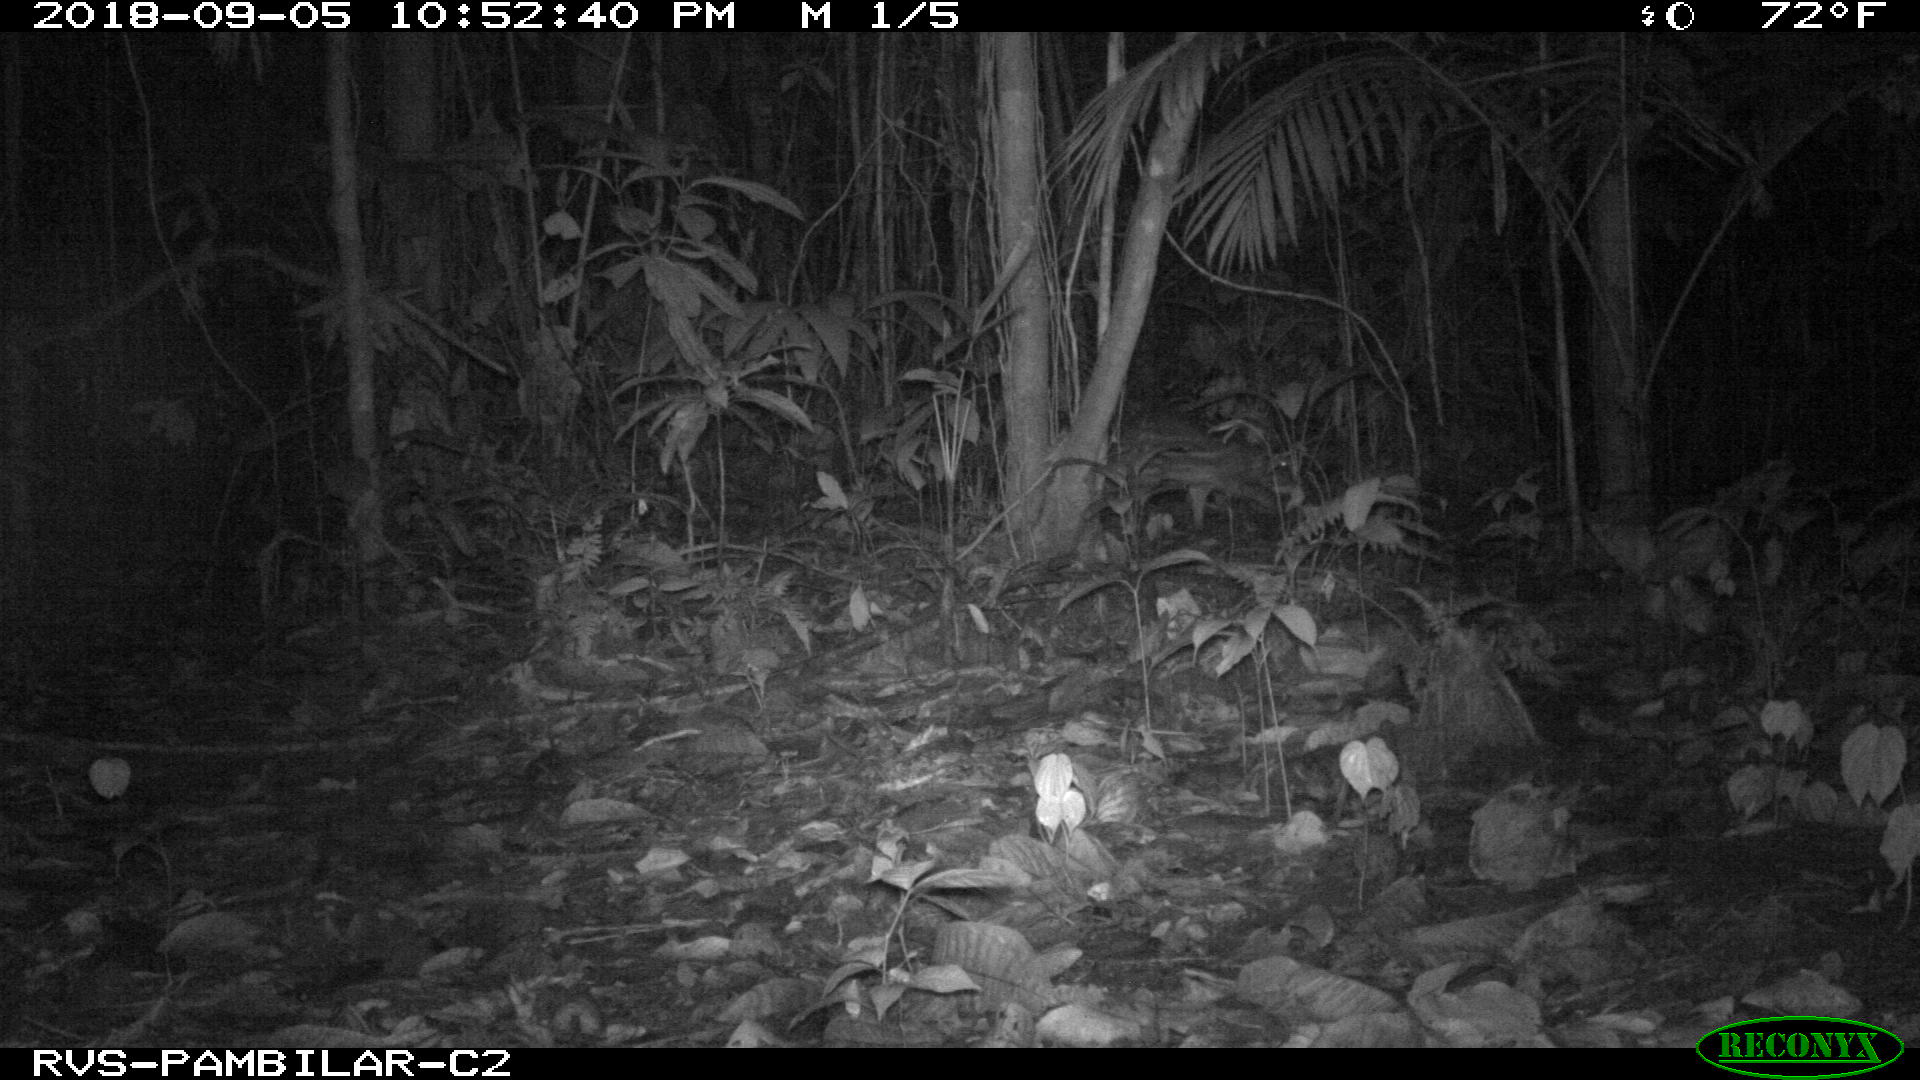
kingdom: Animalia
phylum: Chordata
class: Mammalia
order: Rodentia
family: Cuniculidae
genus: Cuniculus
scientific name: Cuniculus paca
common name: Lowland paca
